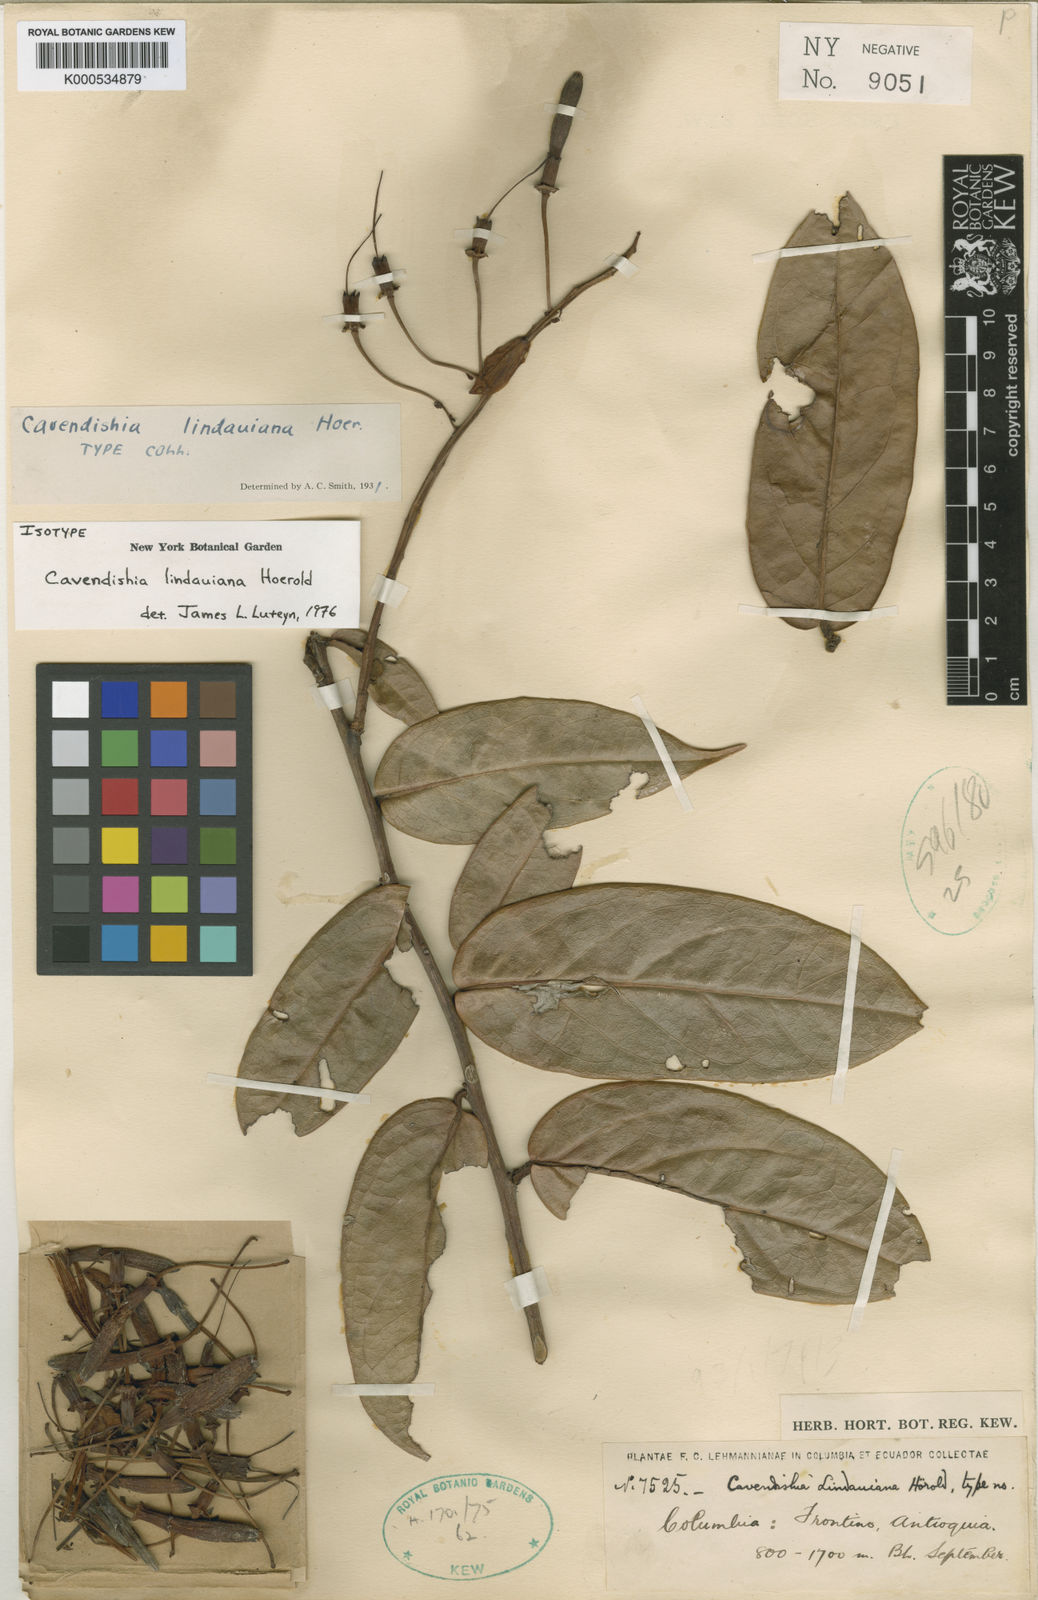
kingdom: Plantae
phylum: Tracheophyta
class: Magnoliopsida
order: Ericales
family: Ericaceae
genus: Cavendishia
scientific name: Cavendishia lindauiana
